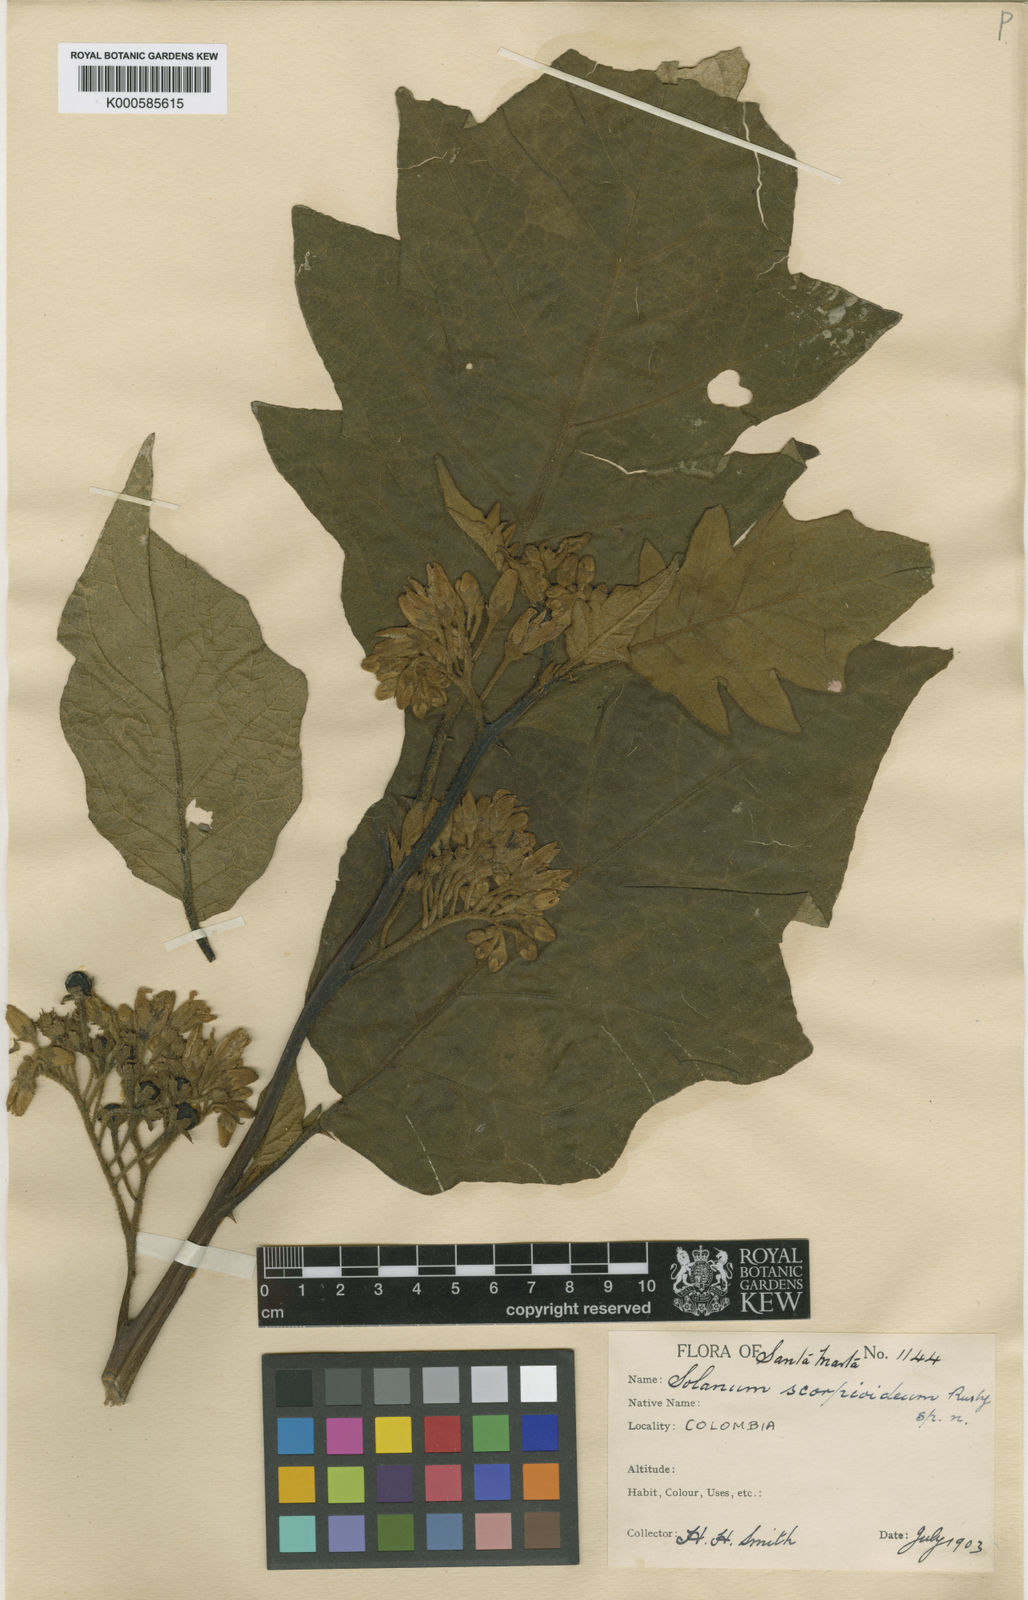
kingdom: Plantae
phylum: Tracheophyta
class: Magnoliopsida
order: Solanales
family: Solanaceae
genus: Solanum
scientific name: Solanum chrysotrichum
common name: Nightshade
